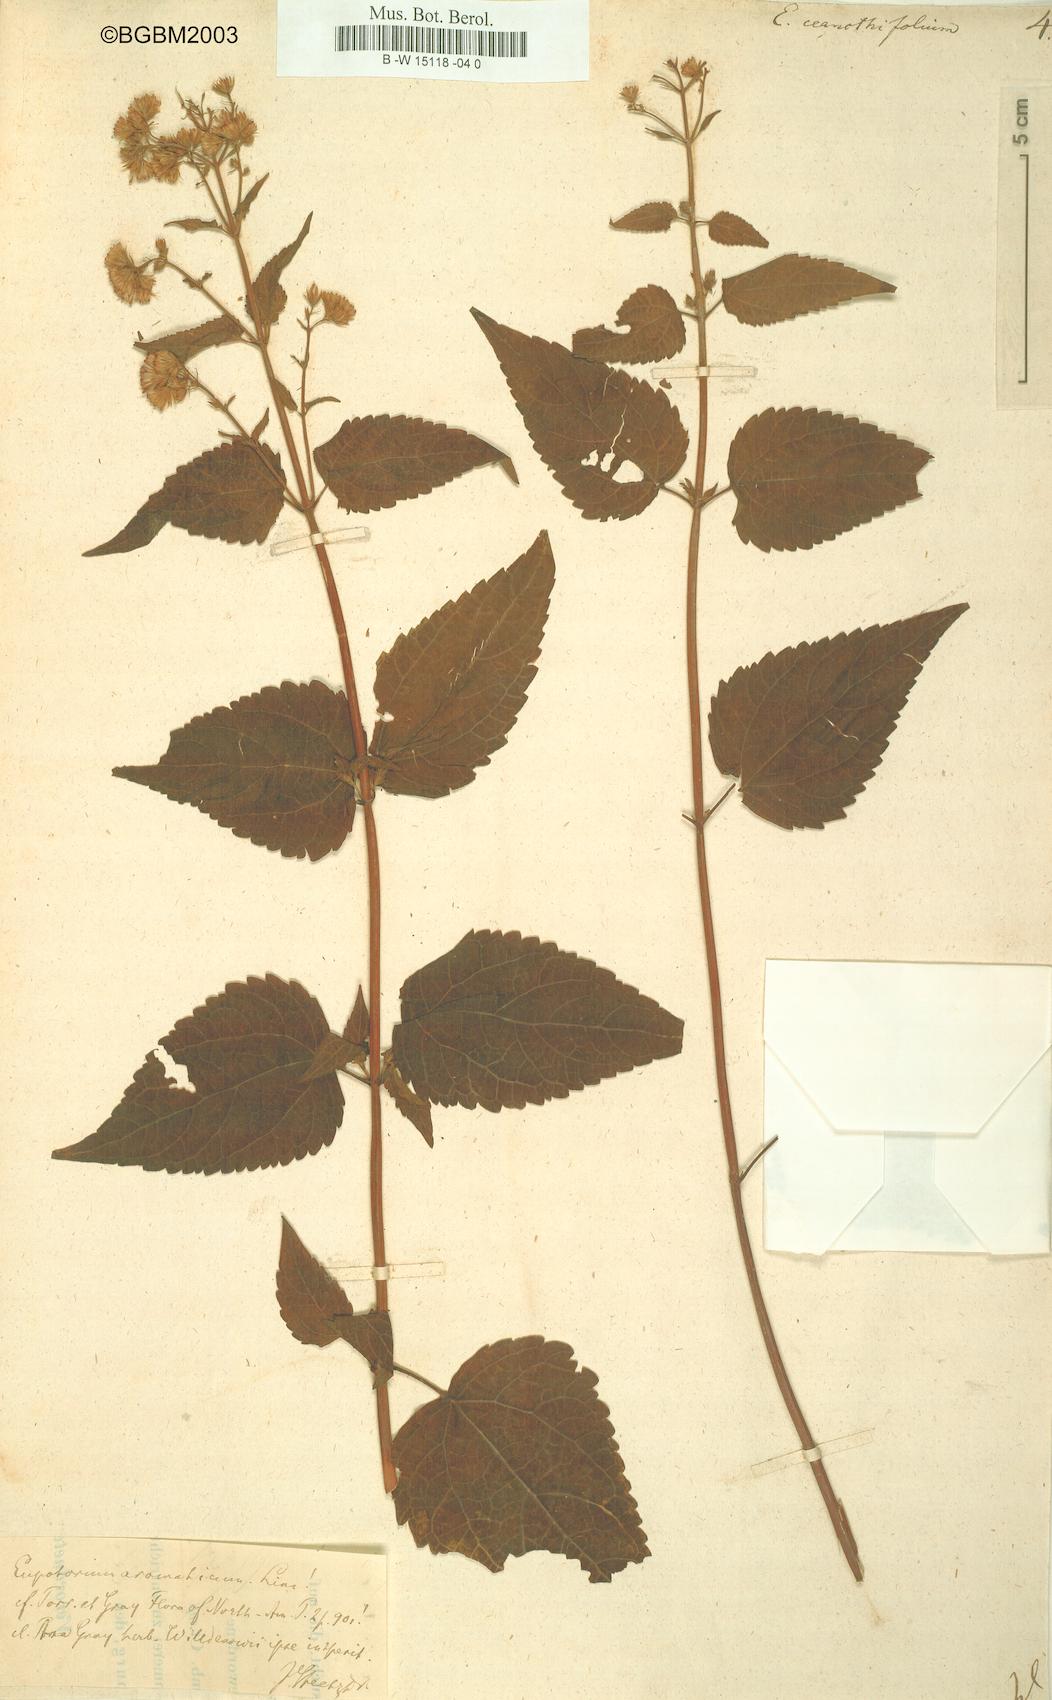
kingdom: Plantae
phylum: Tracheophyta
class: Magnoliopsida
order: Asterales
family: Asteraceae
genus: Ageratina
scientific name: Ageratina
